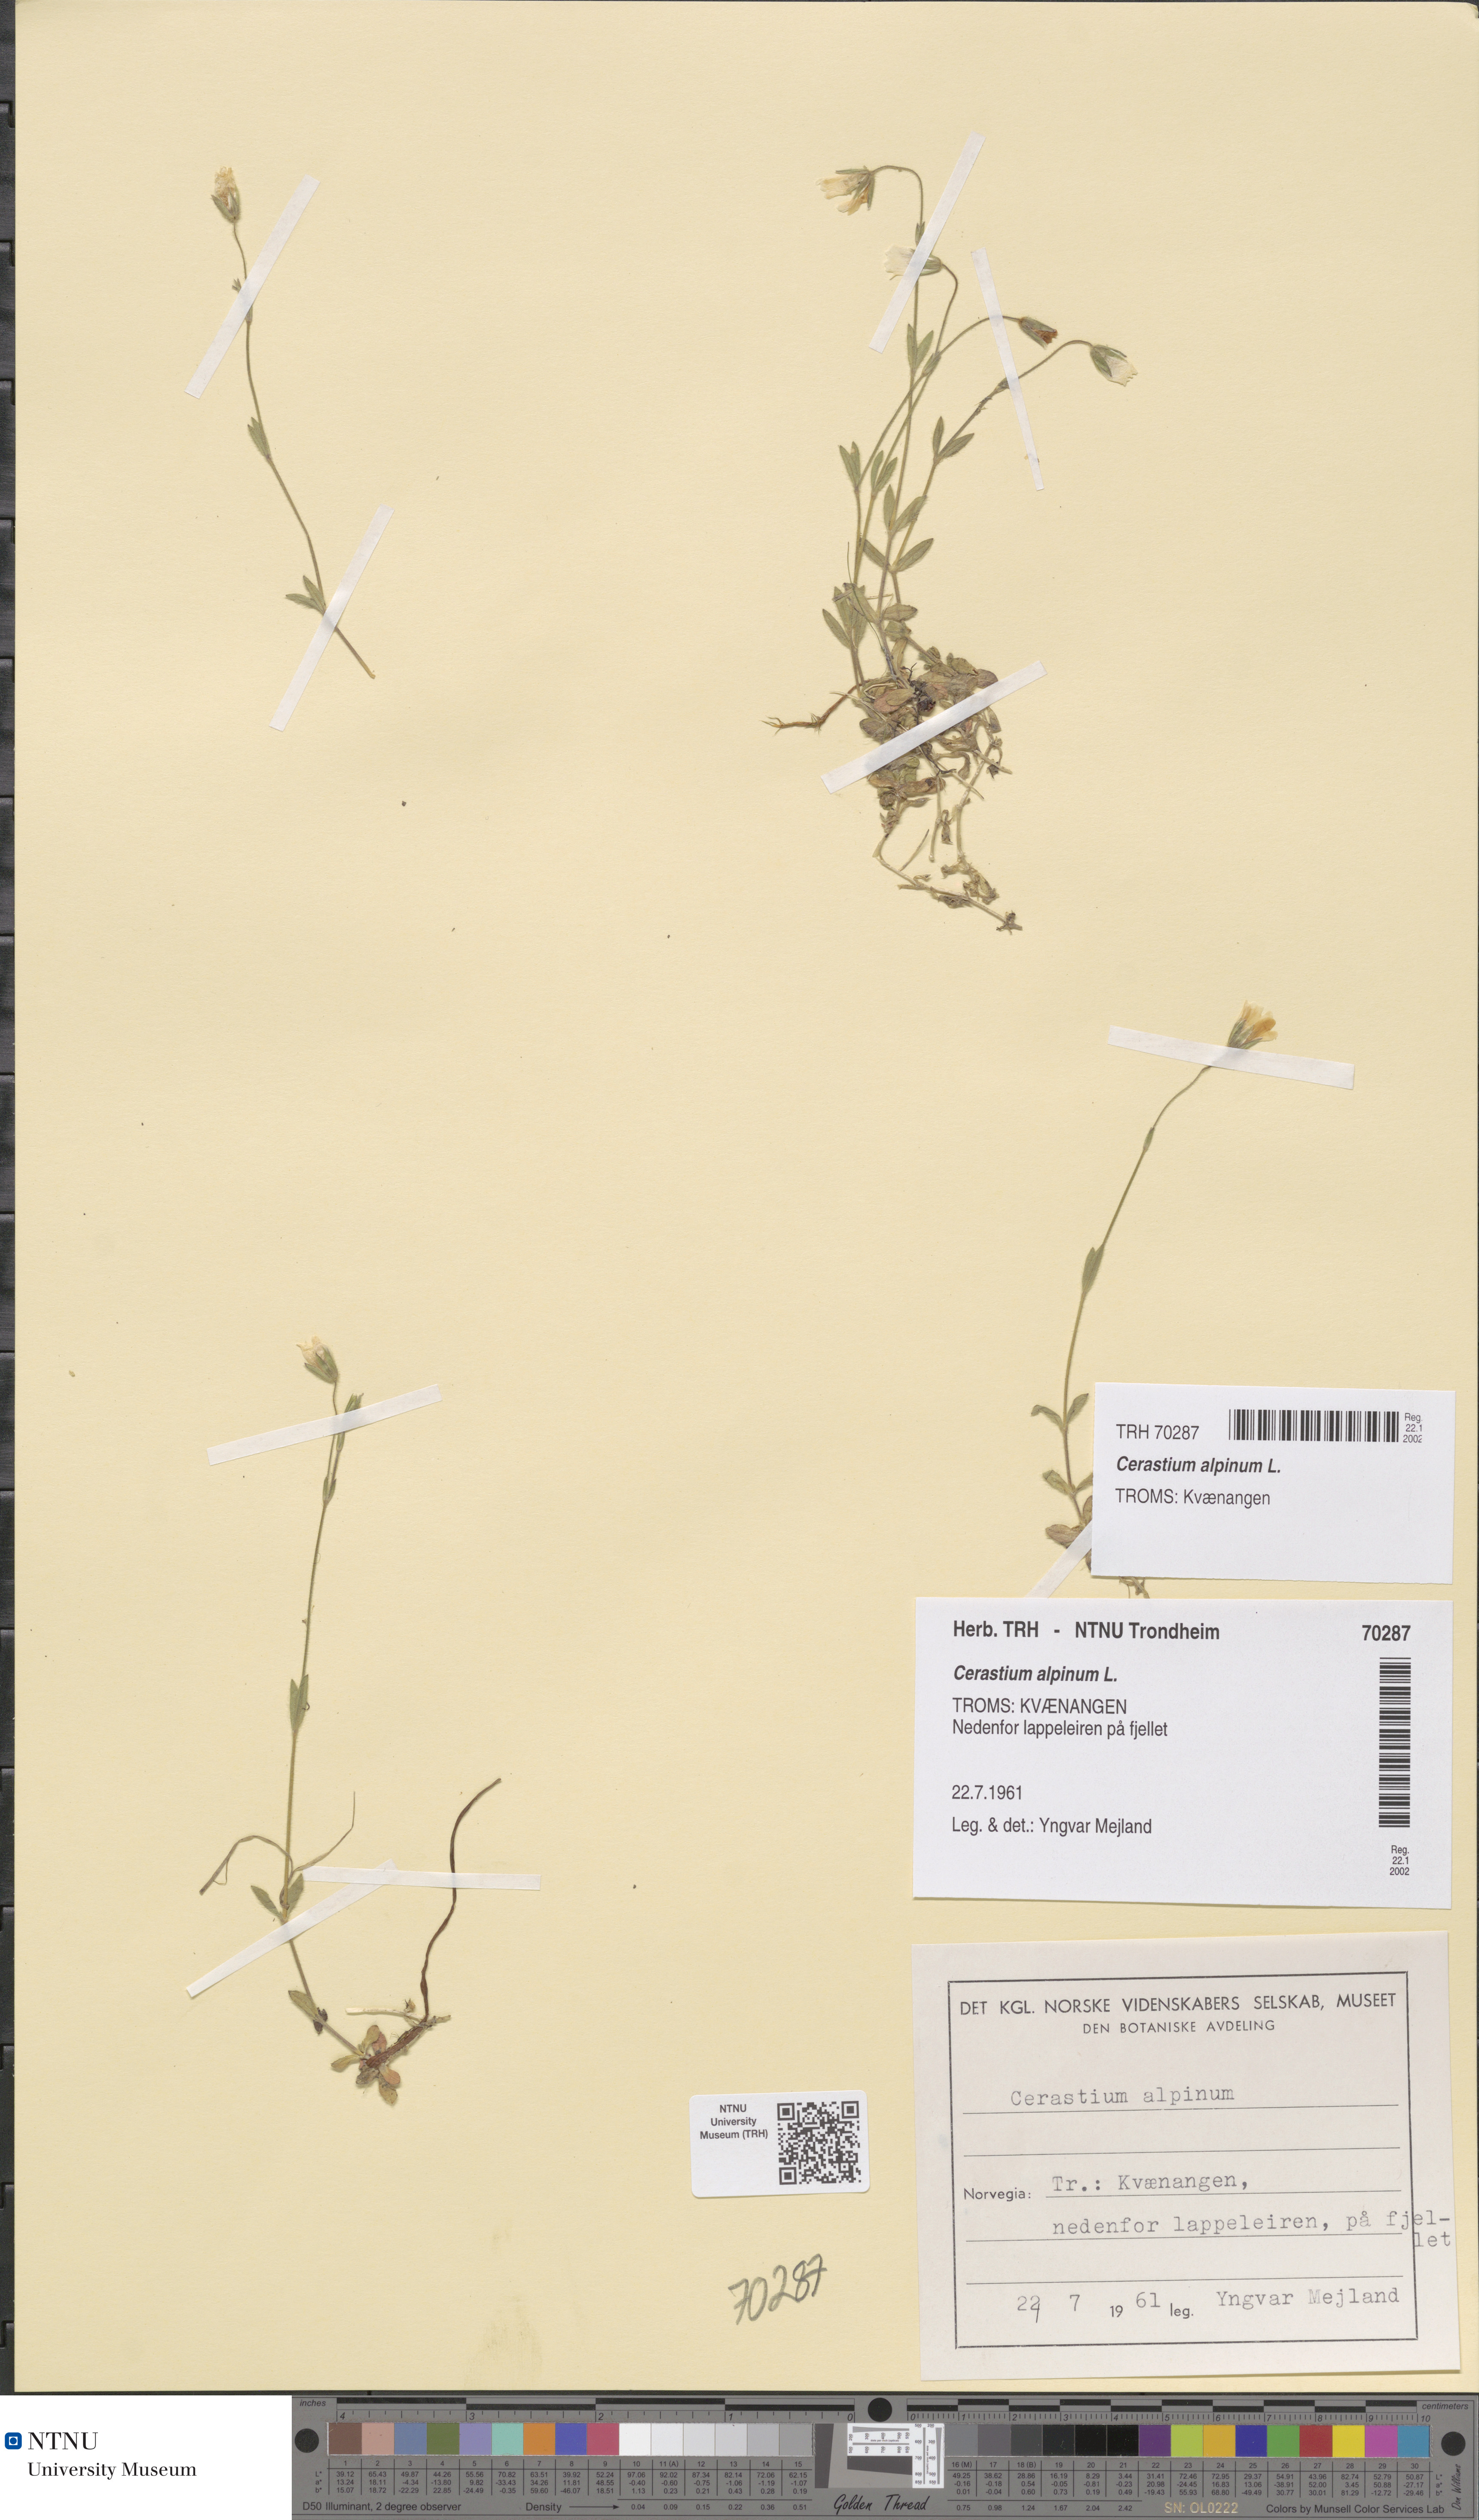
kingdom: Plantae
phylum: Tracheophyta
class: Magnoliopsida
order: Caryophyllales
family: Caryophyllaceae
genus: Cerastium
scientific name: Cerastium alpinum
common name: Alpine mouse-ear
